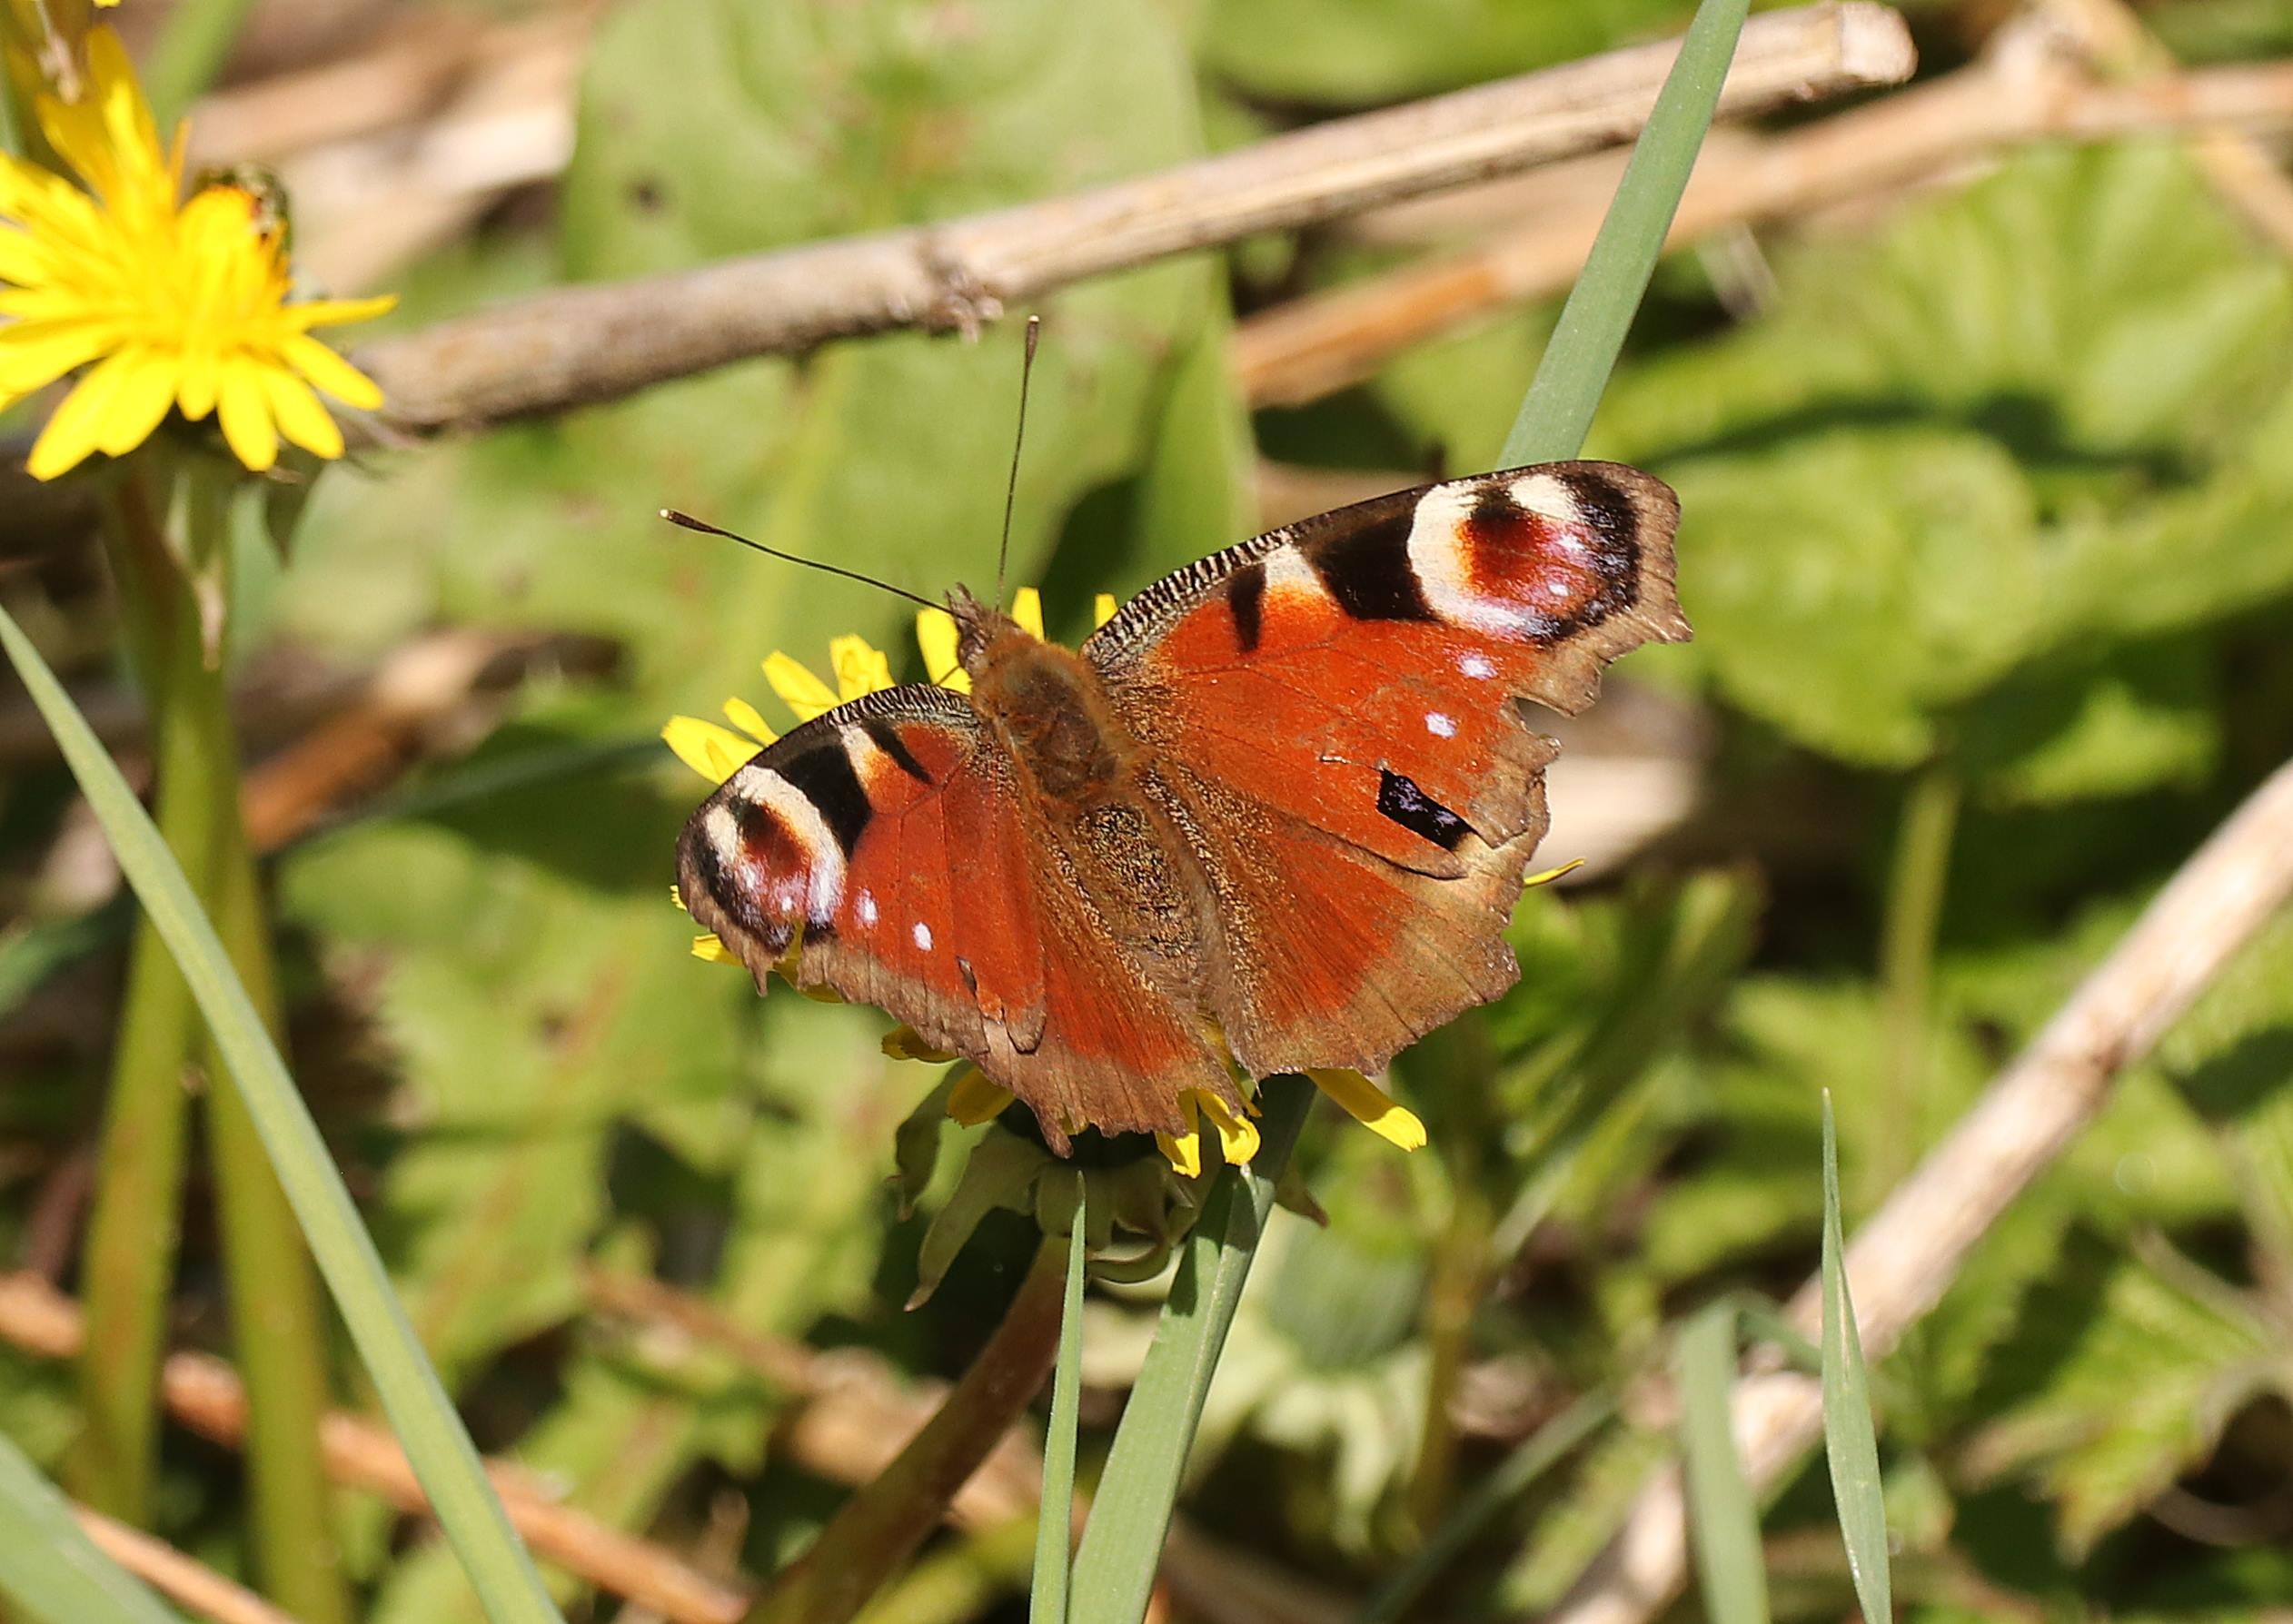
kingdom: Animalia
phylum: Arthropoda
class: Insecta
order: Lepidoptera
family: Nymphalidae
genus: Aglais
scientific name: Aglais io
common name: Dagpåfugleøje
